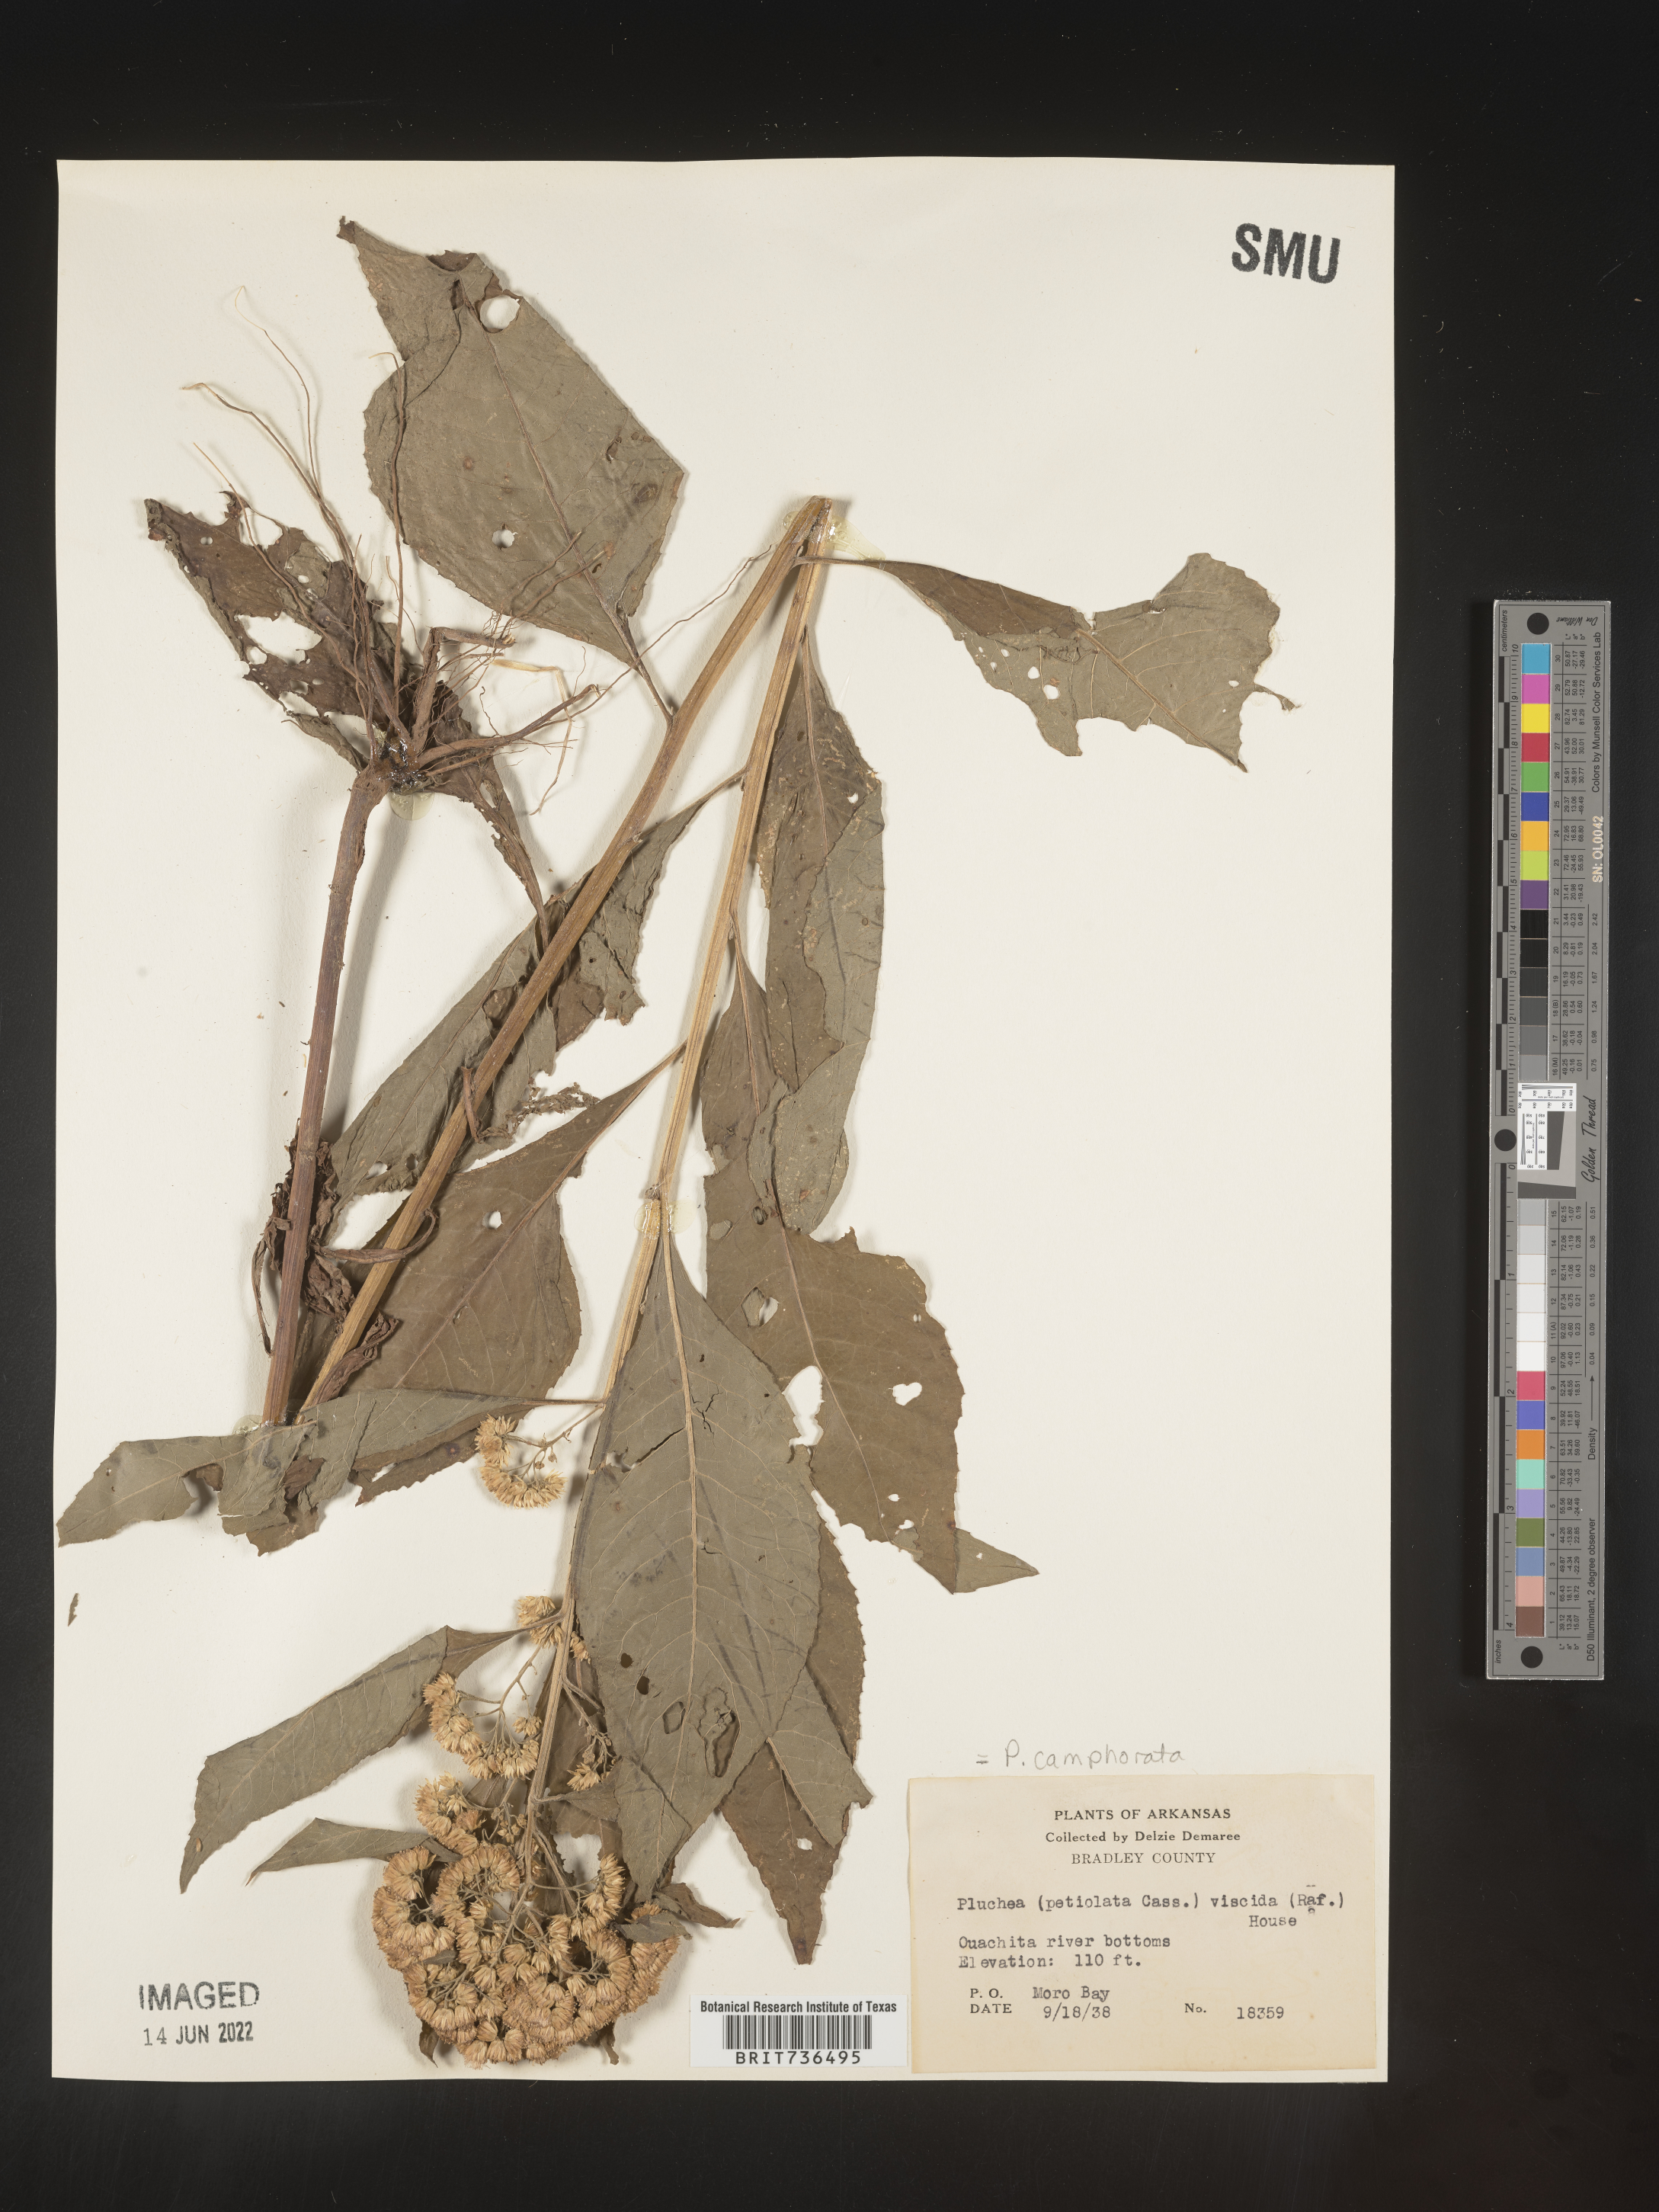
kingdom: Plantae
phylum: Tracheophyta
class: Magnoliopsida
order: Asterales
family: Asteraceae
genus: Pluchea
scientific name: Pluchea camphorata
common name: Camphor pluchea
